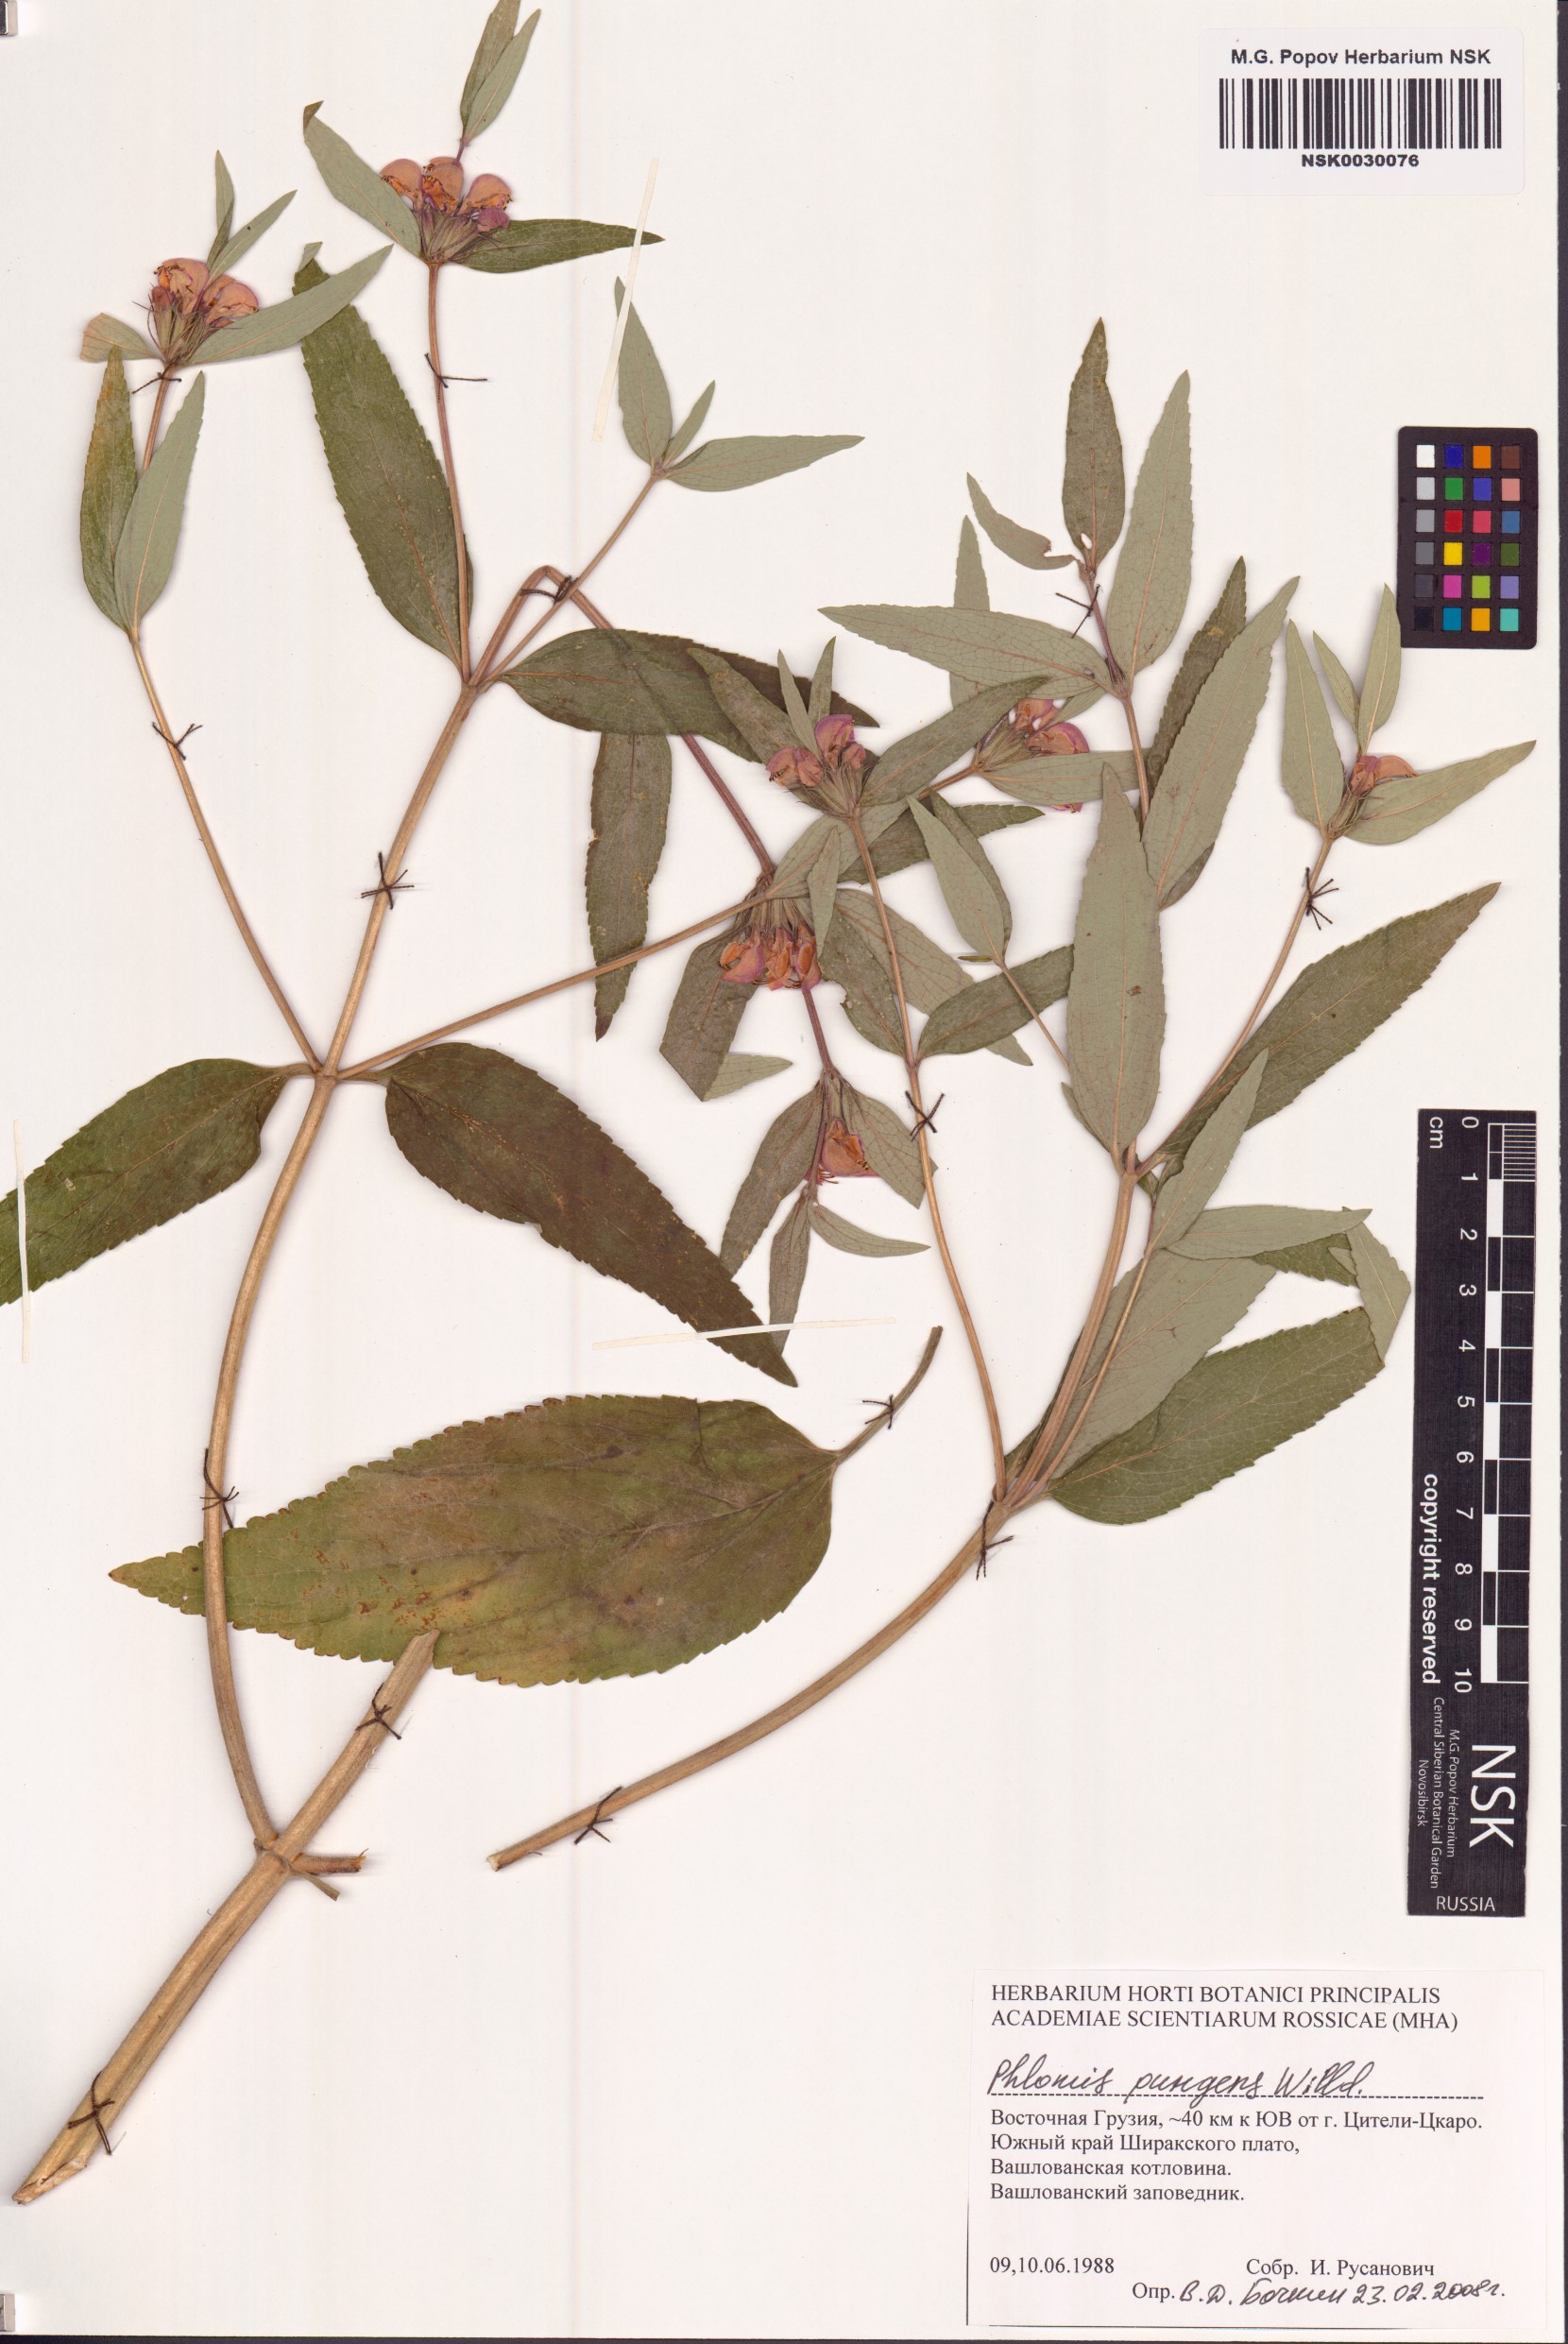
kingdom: Plantae
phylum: Tracheophyta
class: Magnoliopsida
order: Lamiales
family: Lamiaceae
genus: Phlomis
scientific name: Phlomis herba-venti
